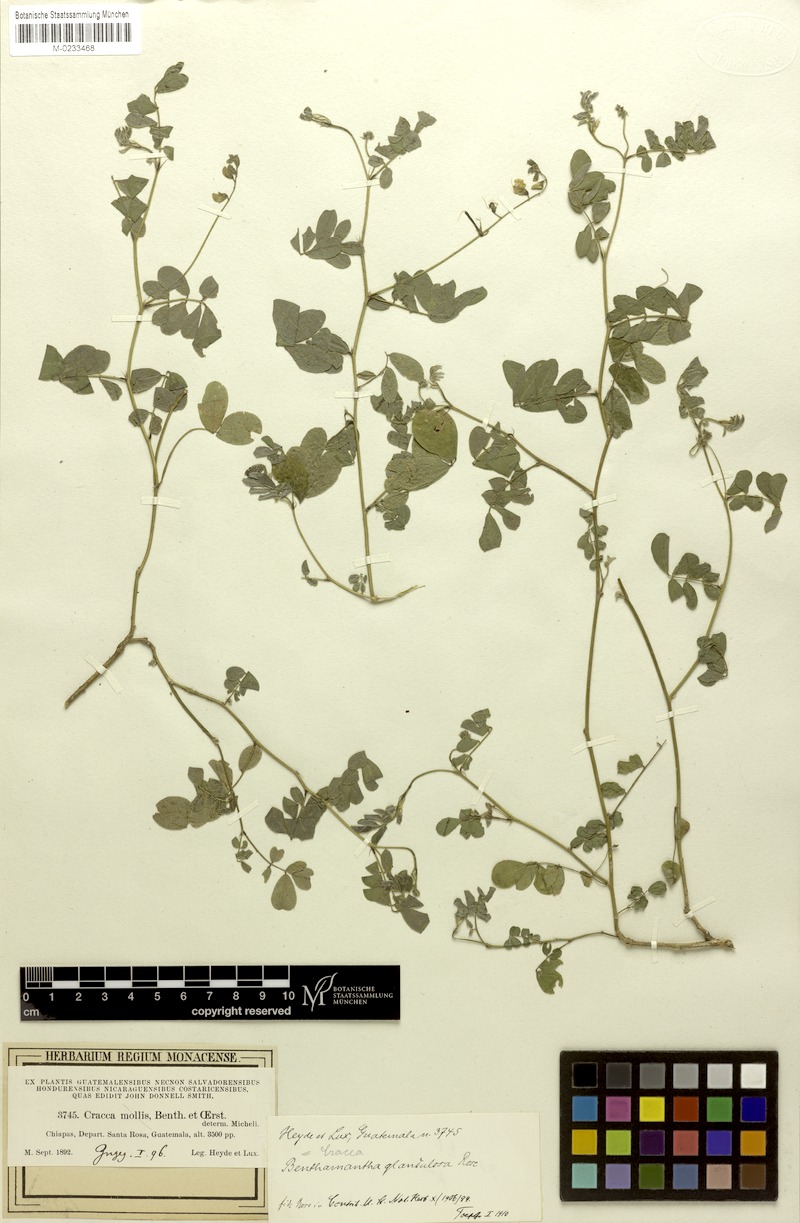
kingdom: Plantae
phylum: Tracheophyta
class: Magnoliopsida
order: Fabales
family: Fabaceae
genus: Coursetia
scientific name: Coursetia caribaea
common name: Anil falso
